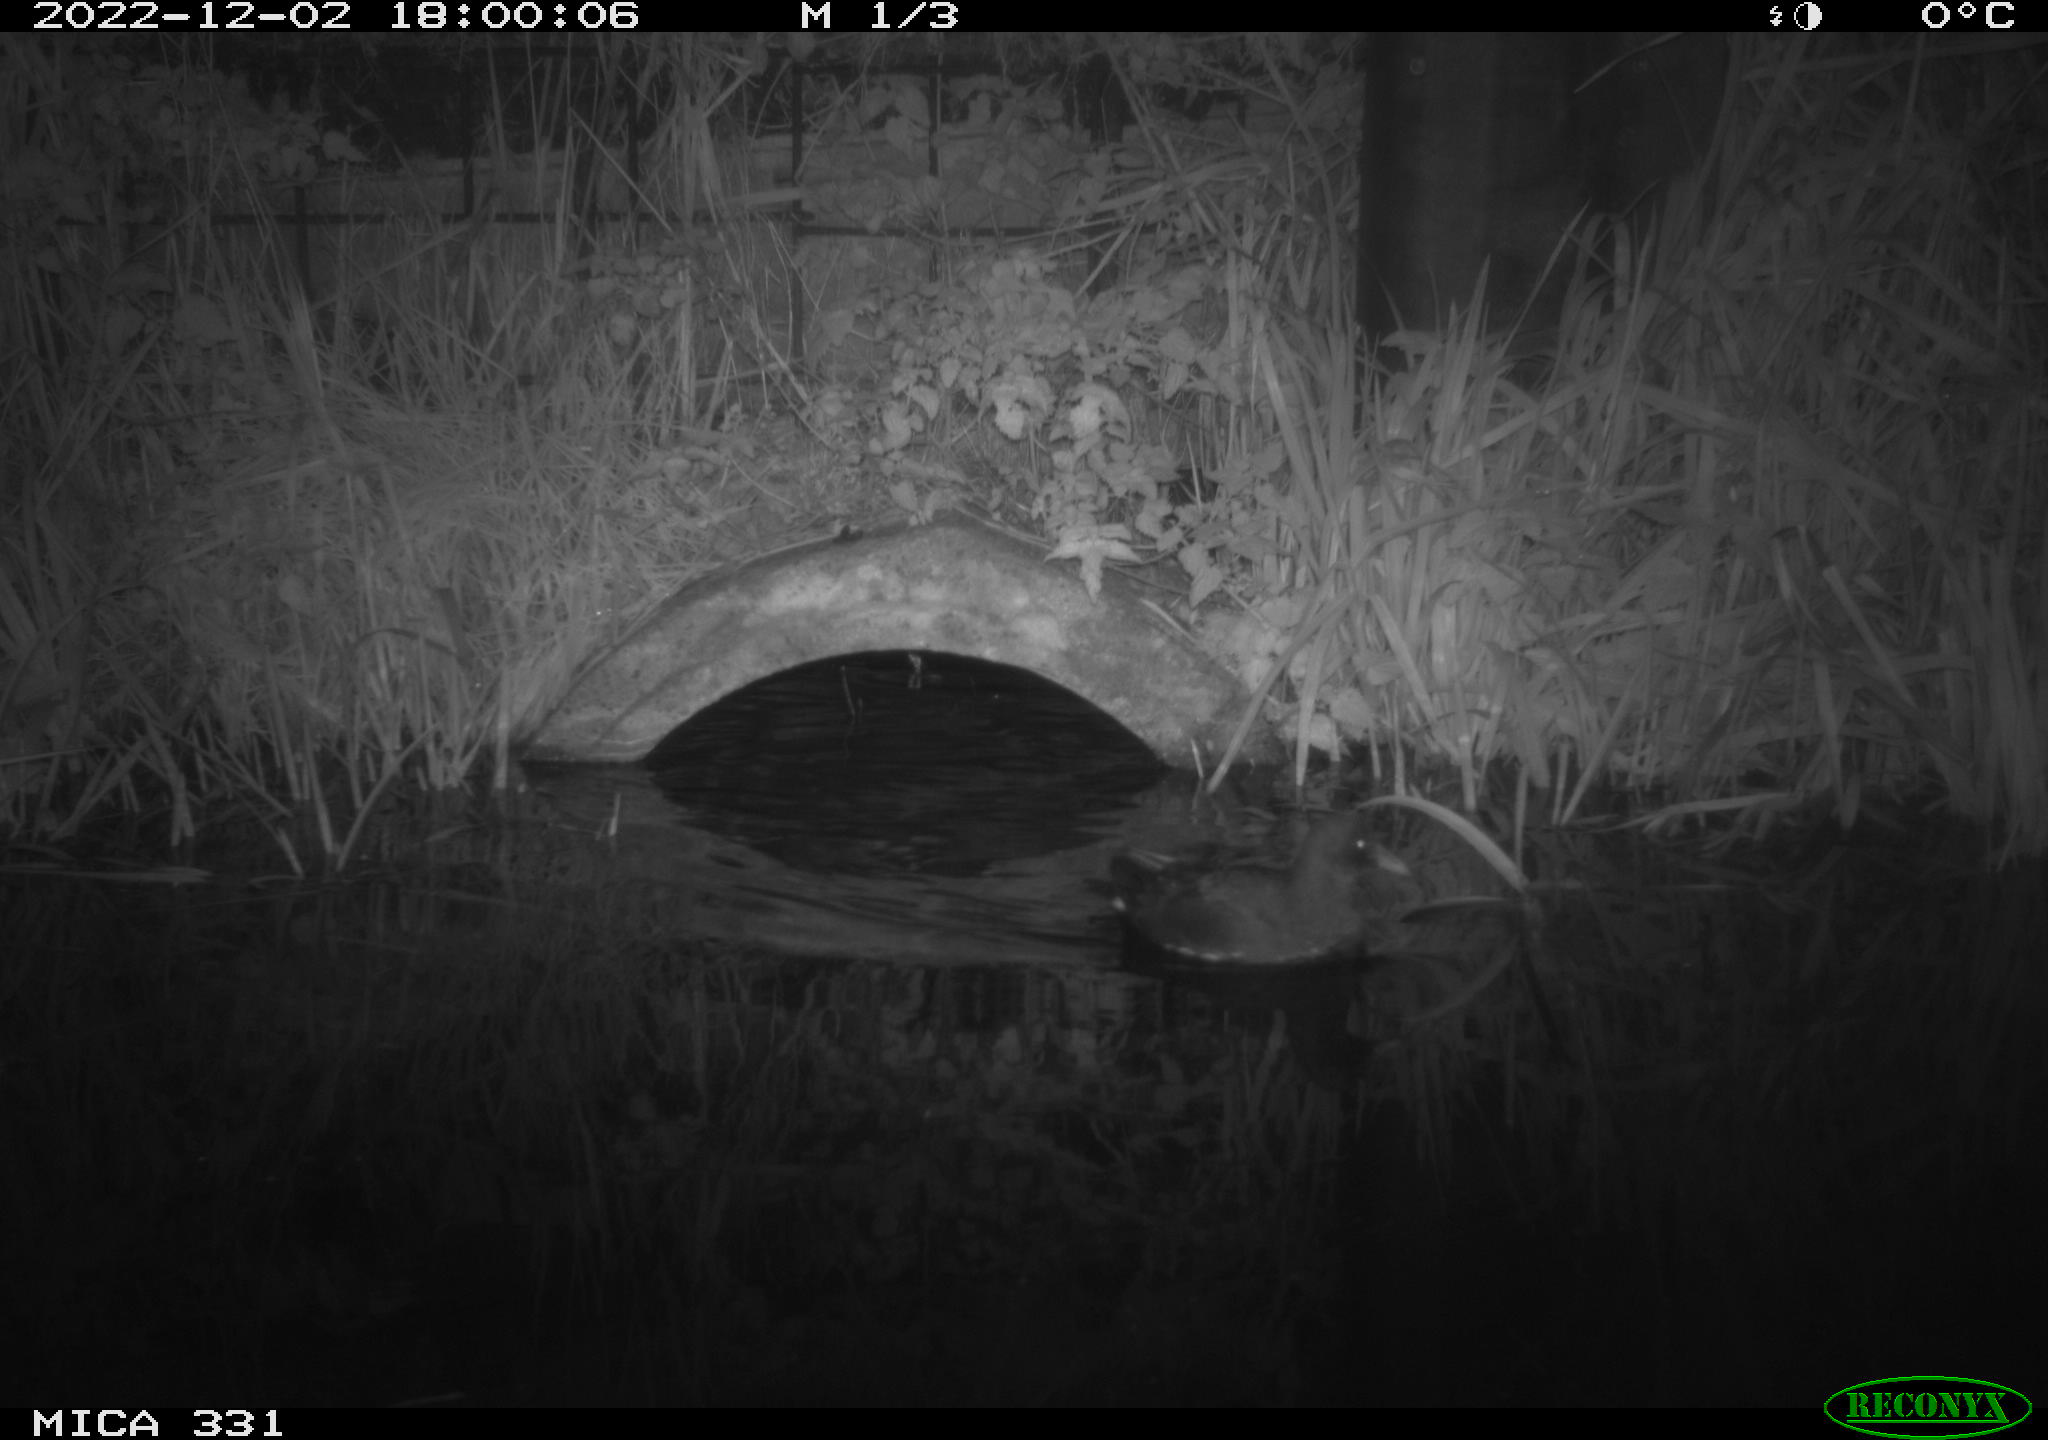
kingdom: Animalia
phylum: Chordata
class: Aves
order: Gruiformes
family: Rallidae
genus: Gallinula
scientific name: Gallinula chloropus
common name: Common moorhen
